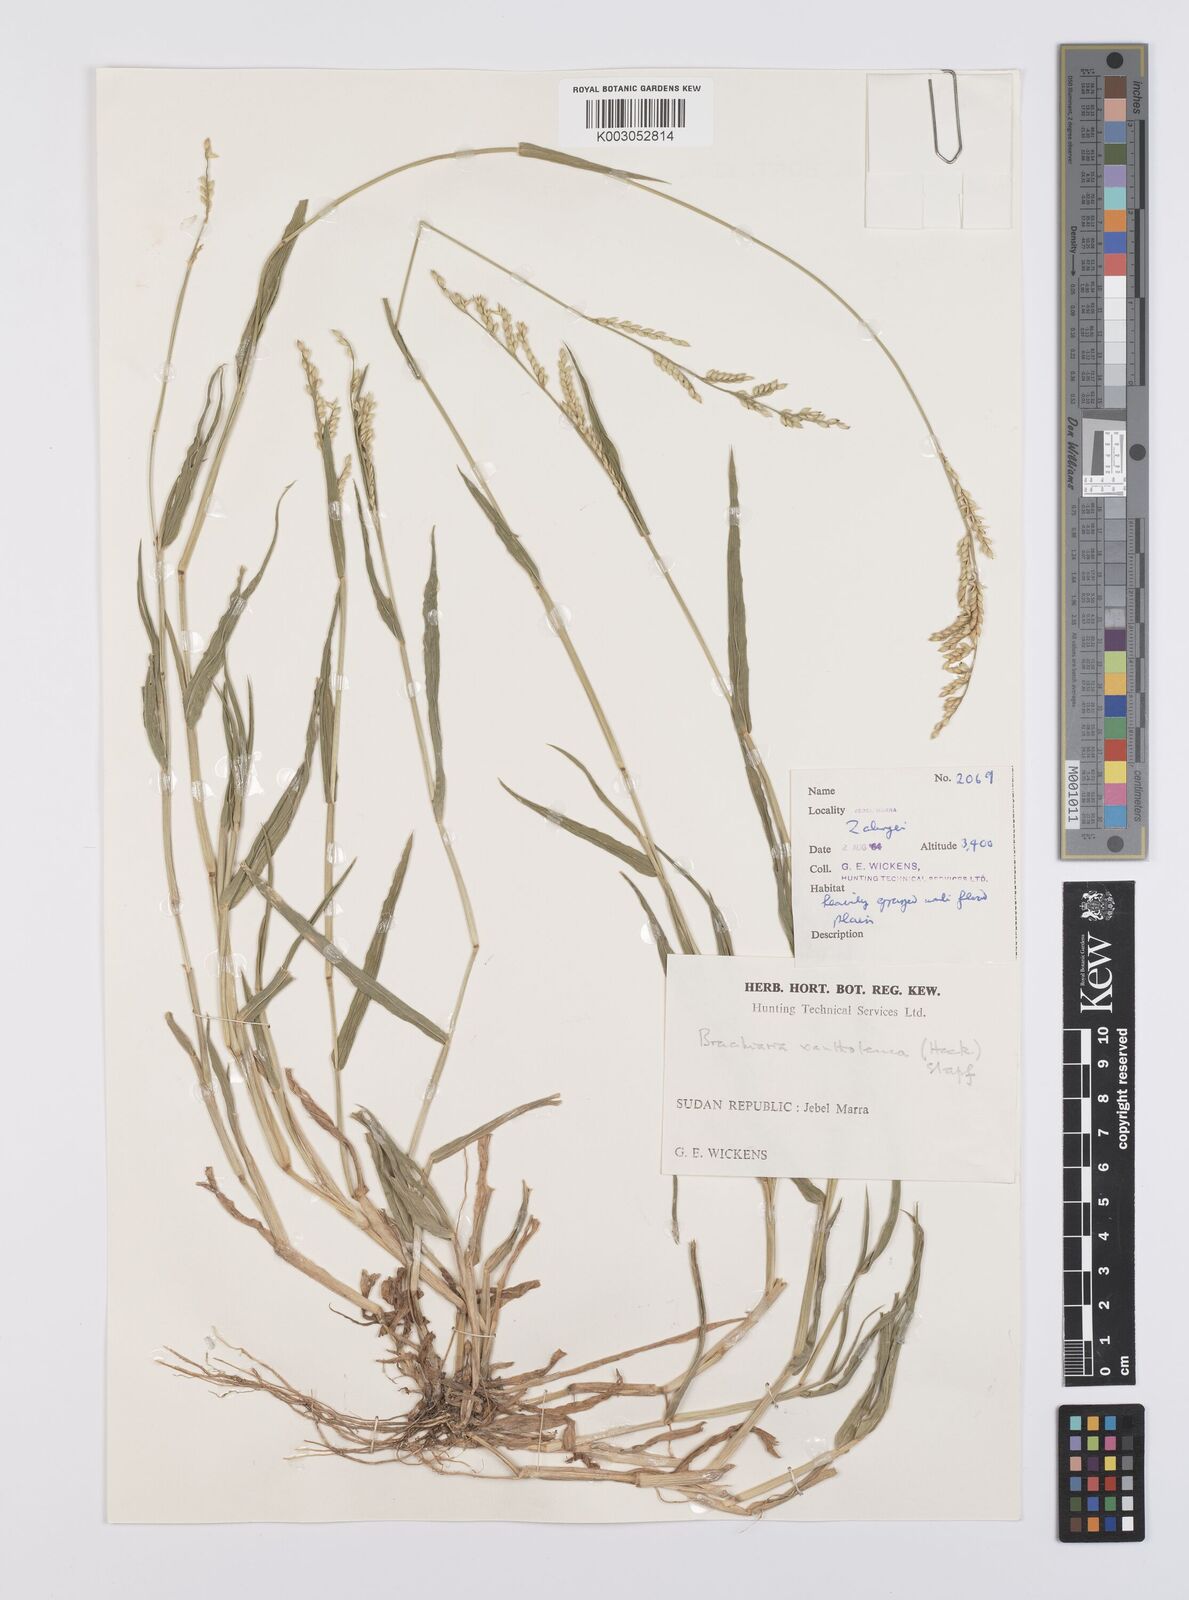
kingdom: Plantae
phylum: Tracheophyta
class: Liliopsida
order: Poales
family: Poaceae
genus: Urochloa
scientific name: Urochloa xantholeuca
